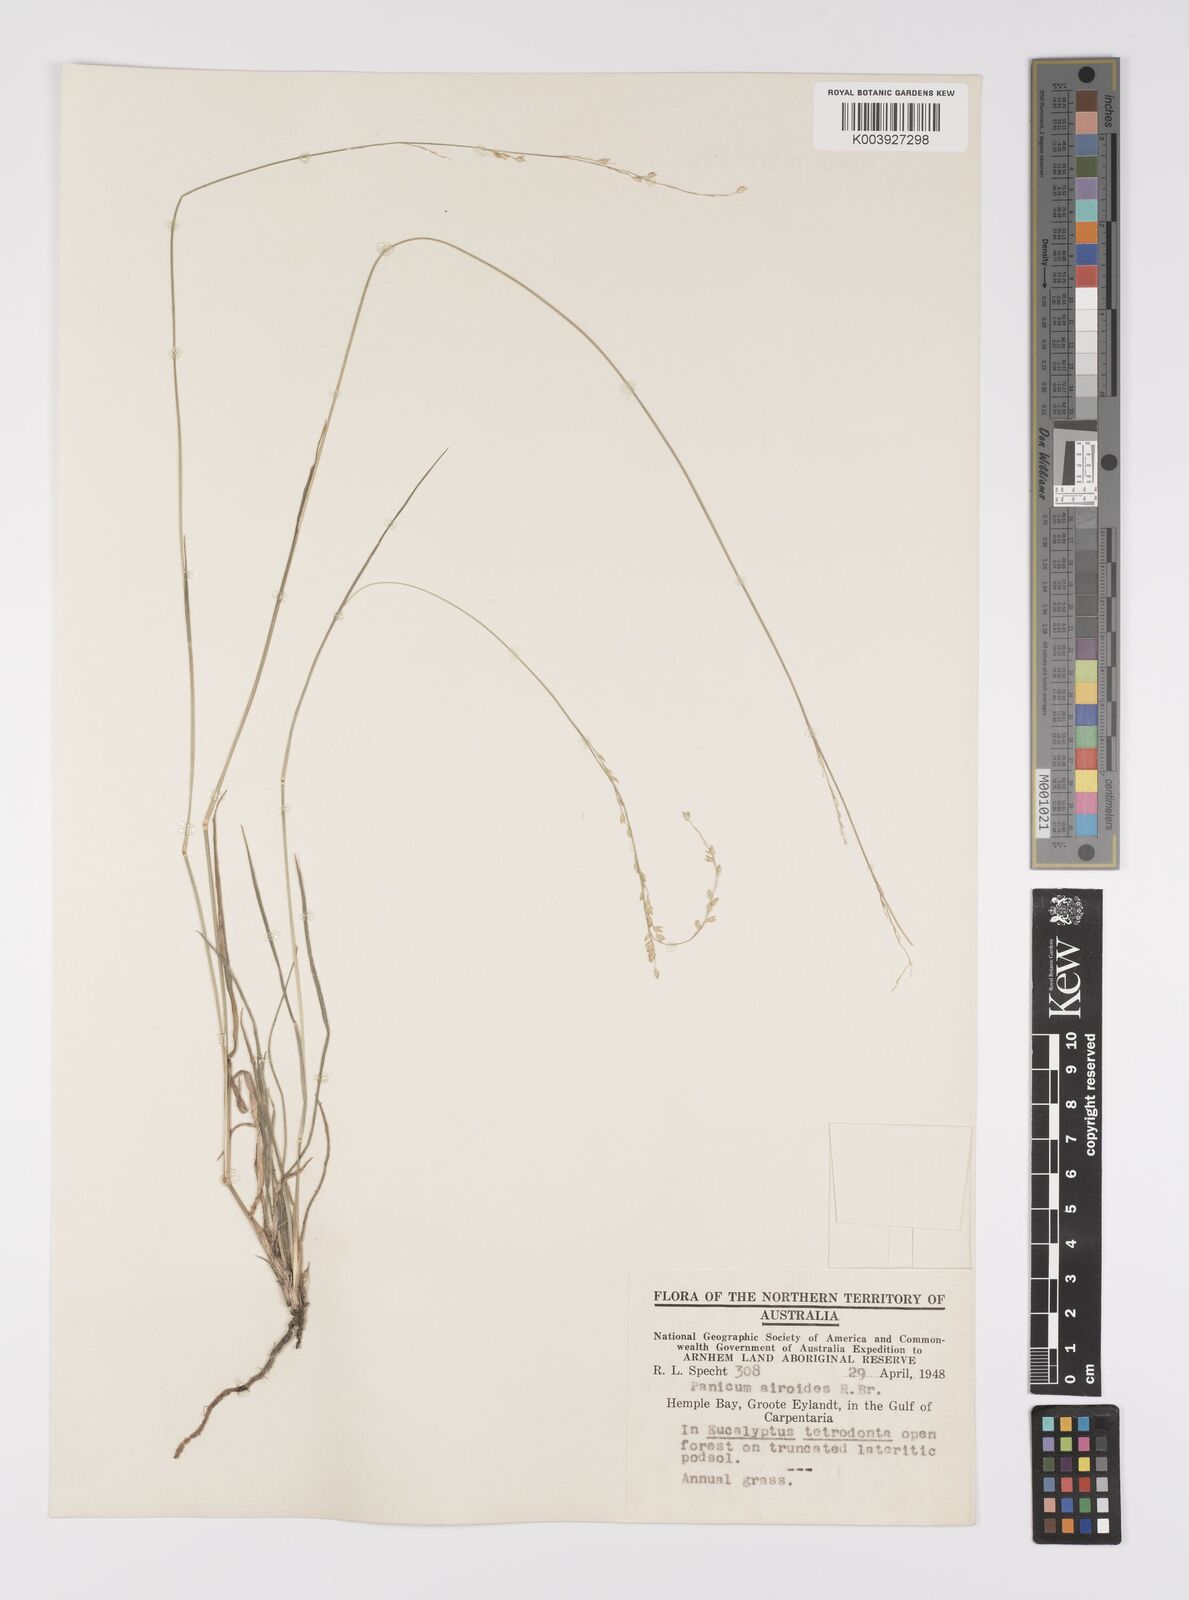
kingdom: Plantae
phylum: Tracheophyta
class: Liliopsida
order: Poales
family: Poaceae
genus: Whiteochloa
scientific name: Whiteochloa airoides
